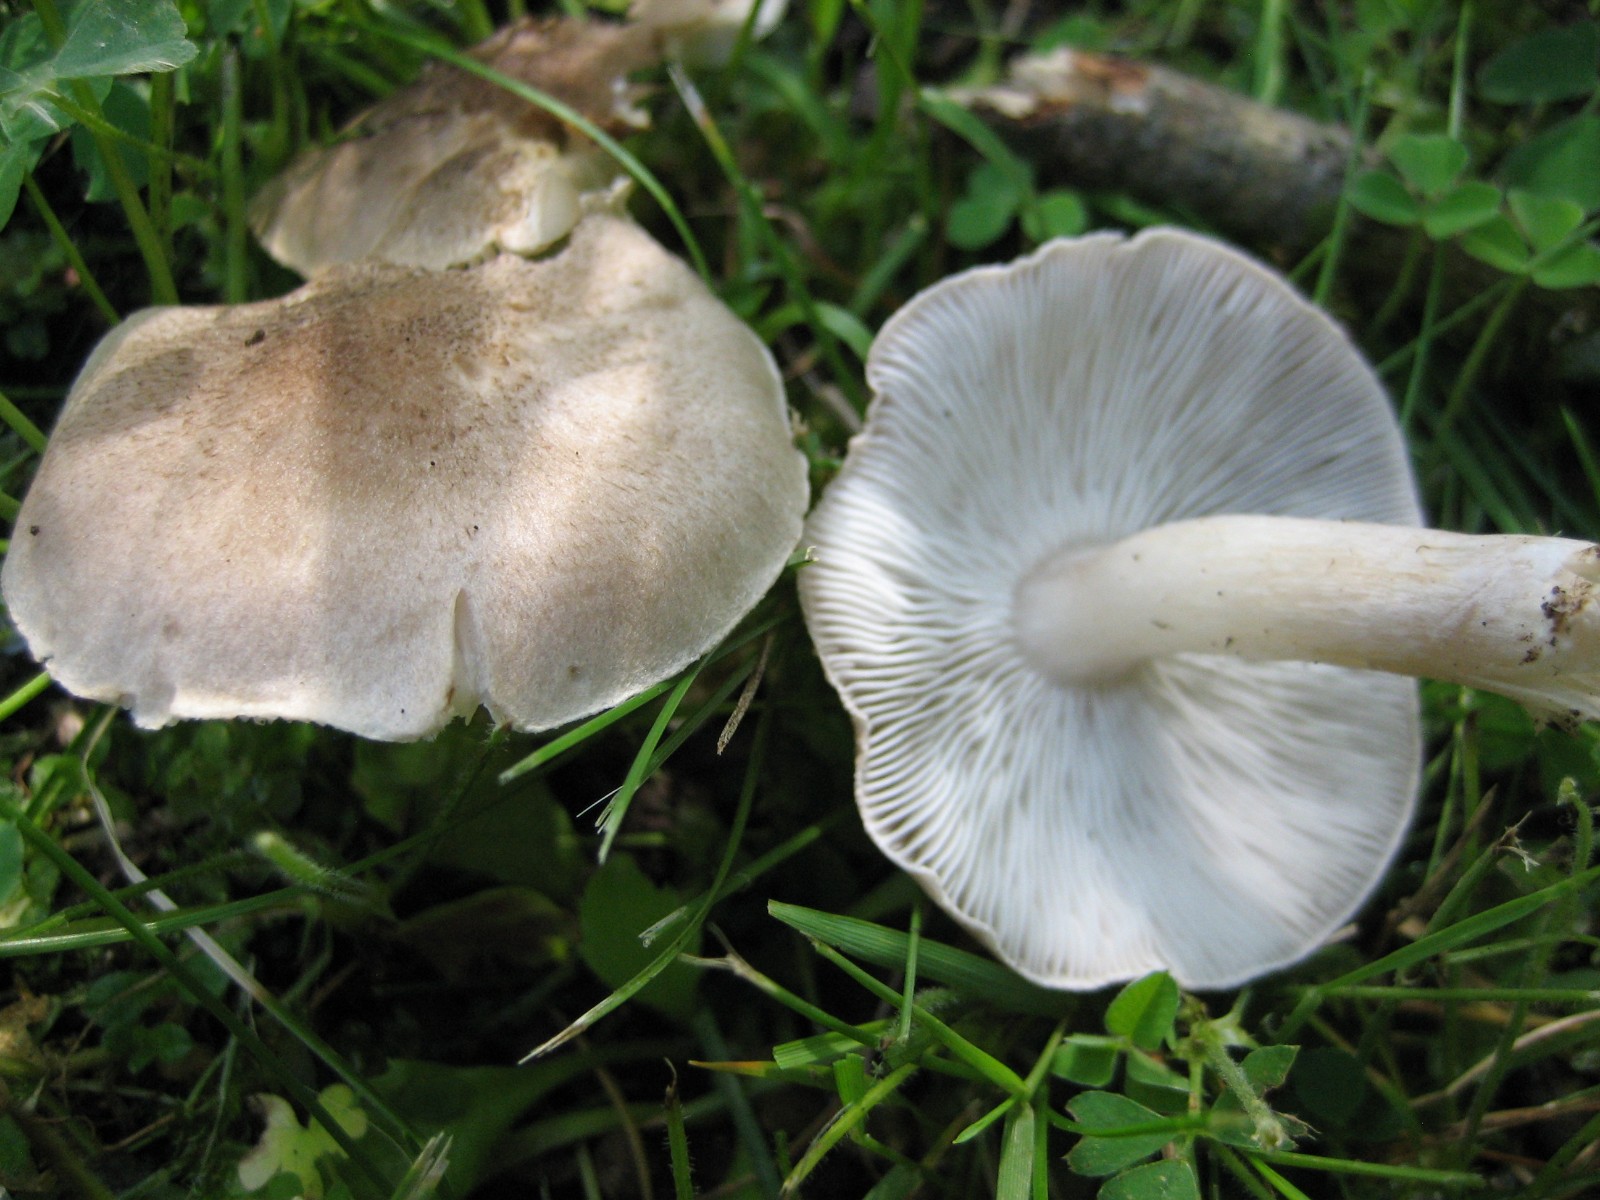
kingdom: Fungi
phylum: Basidiomycota
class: Agaricomycetes
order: Agaricales
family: Tricholomataceae
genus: Tricholoma
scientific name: Tricholoma
